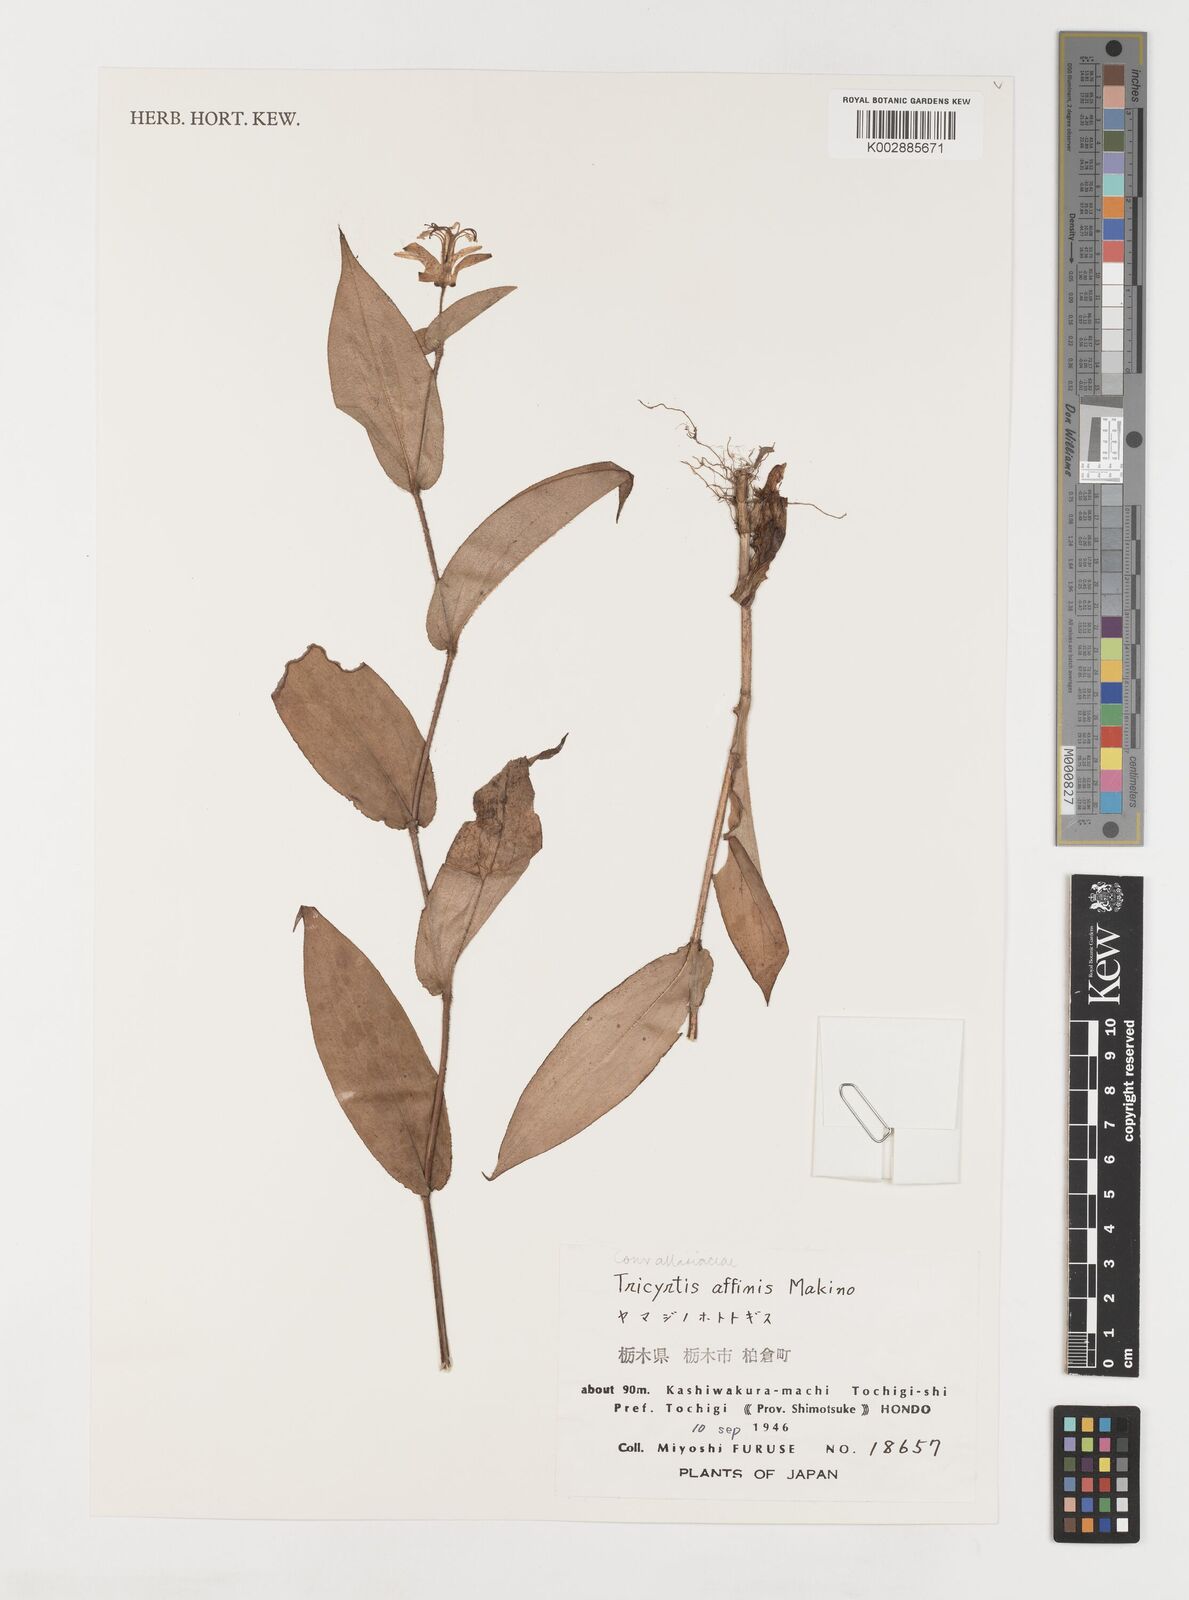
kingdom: Plantae
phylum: Tracheophyta
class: Liliopsida
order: Liliales
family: Liliaceae
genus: Tricyrtis
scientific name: Tricyrtis affinis
